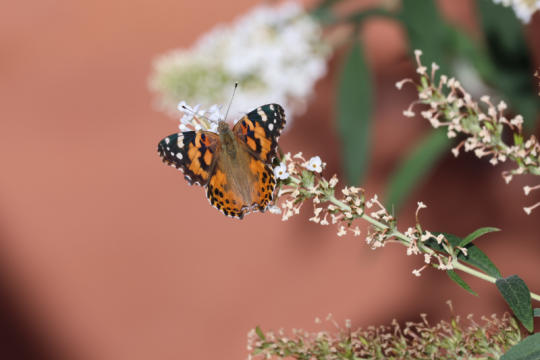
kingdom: Animalia
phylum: Arthropoda
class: Insecta
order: Lepidoptera
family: Nymphalidae
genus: Vanessa
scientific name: Vanessa cardui
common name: Painted Lady
